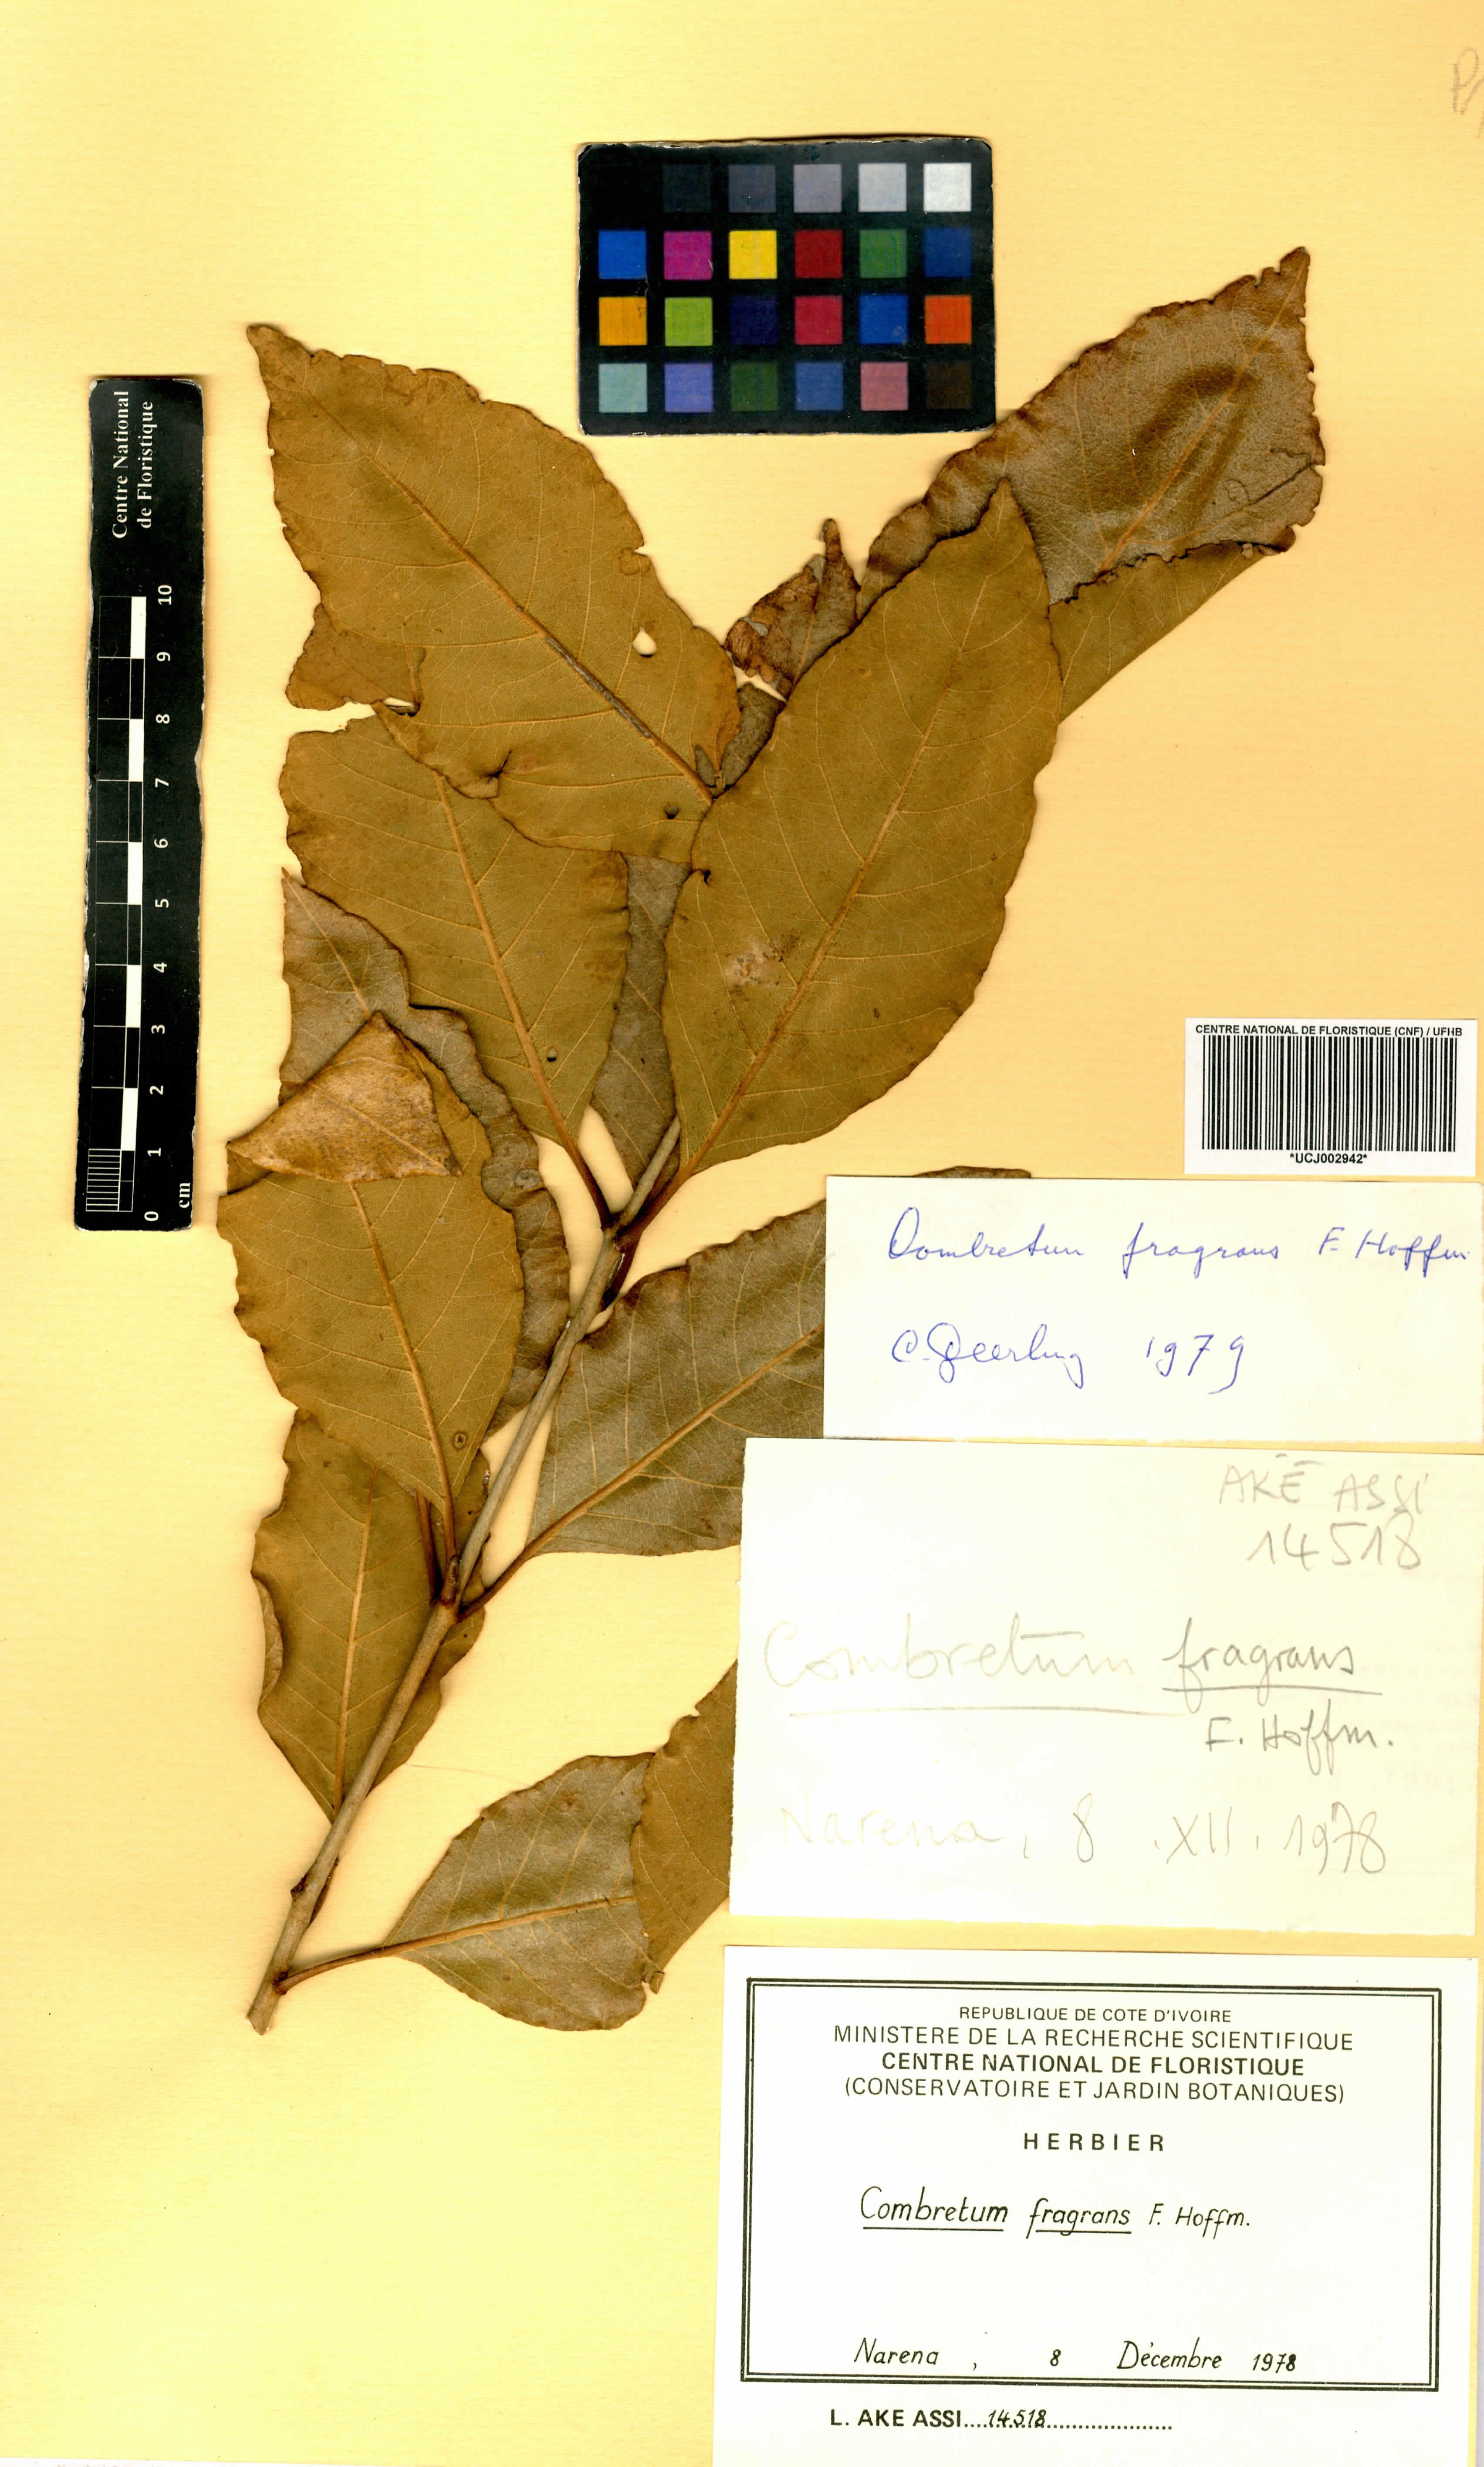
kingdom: Plantae
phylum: Tracheophyta
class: Magnoliopsida
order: Myrtales
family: Combretaceae
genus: Combretum
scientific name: Combretum adenogonium
